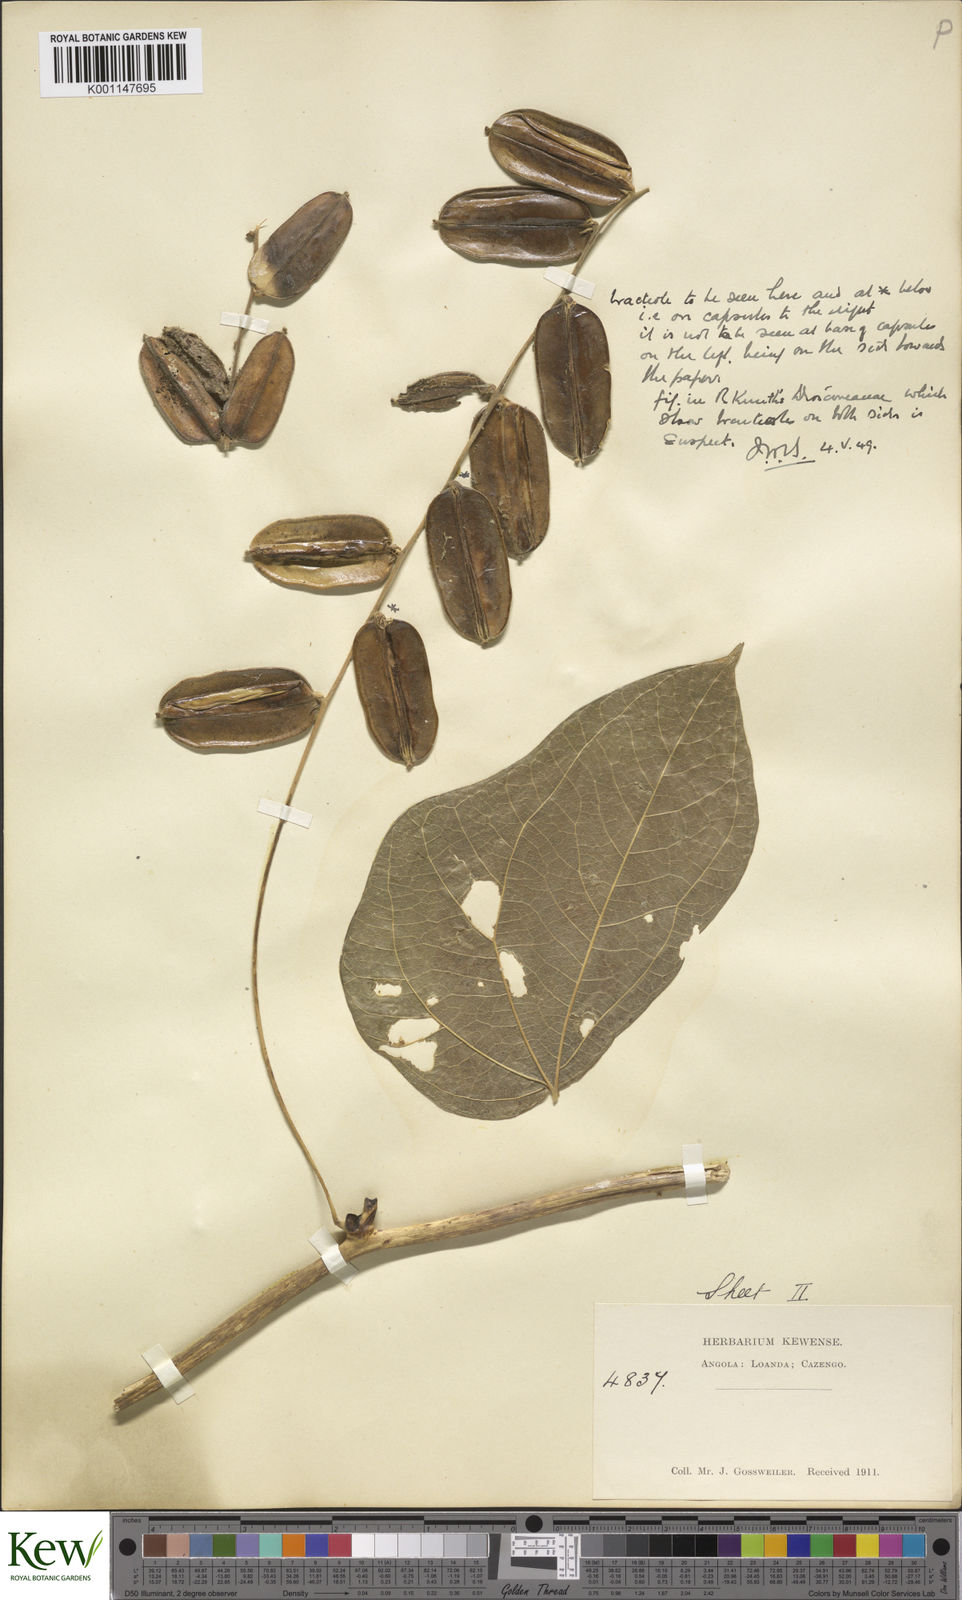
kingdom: Plantae
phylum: Tracheophyta
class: Liliopsida
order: Dioscoreales
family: Dioscoreaceae
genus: Dioscorea
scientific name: Dioscorea dumetorum
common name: African bitter yam
